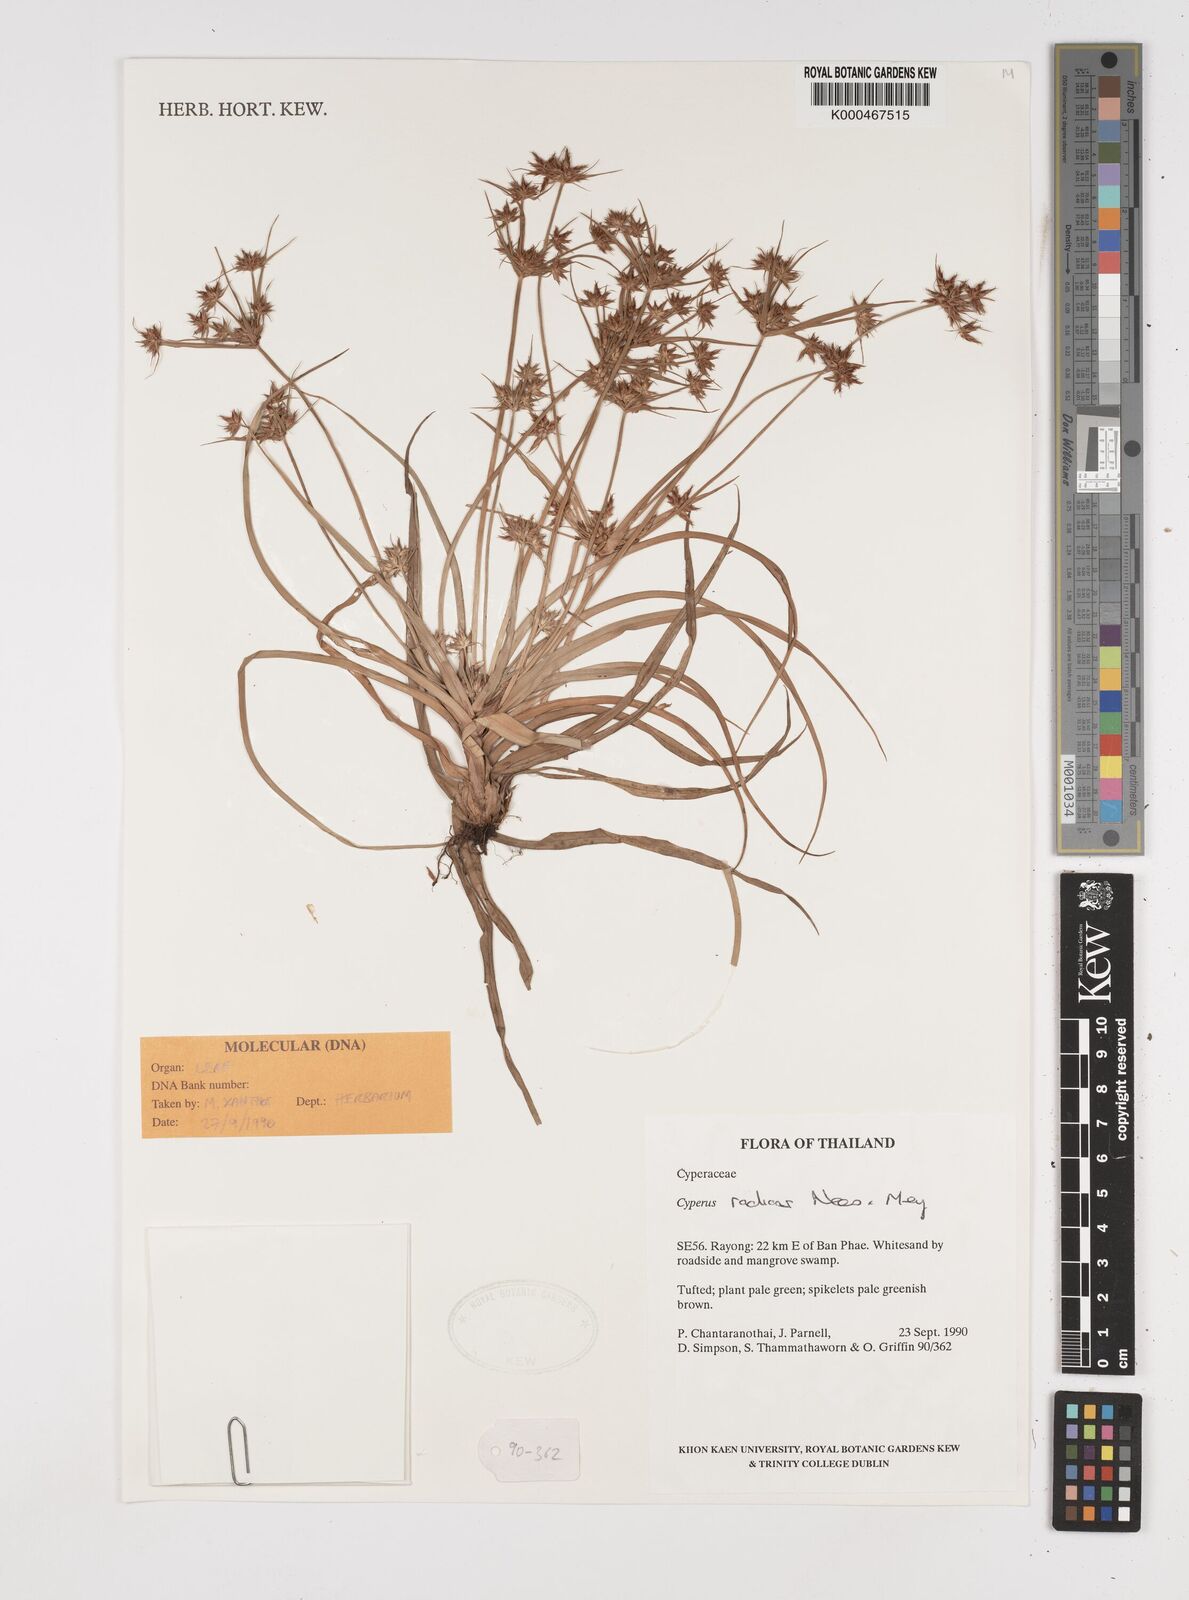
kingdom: Plantae
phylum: Tracheophyta
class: Liliopsida
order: Poales
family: Cyperaceae
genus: Cyperus
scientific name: Cyperus radians
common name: Short-stem cyperus
